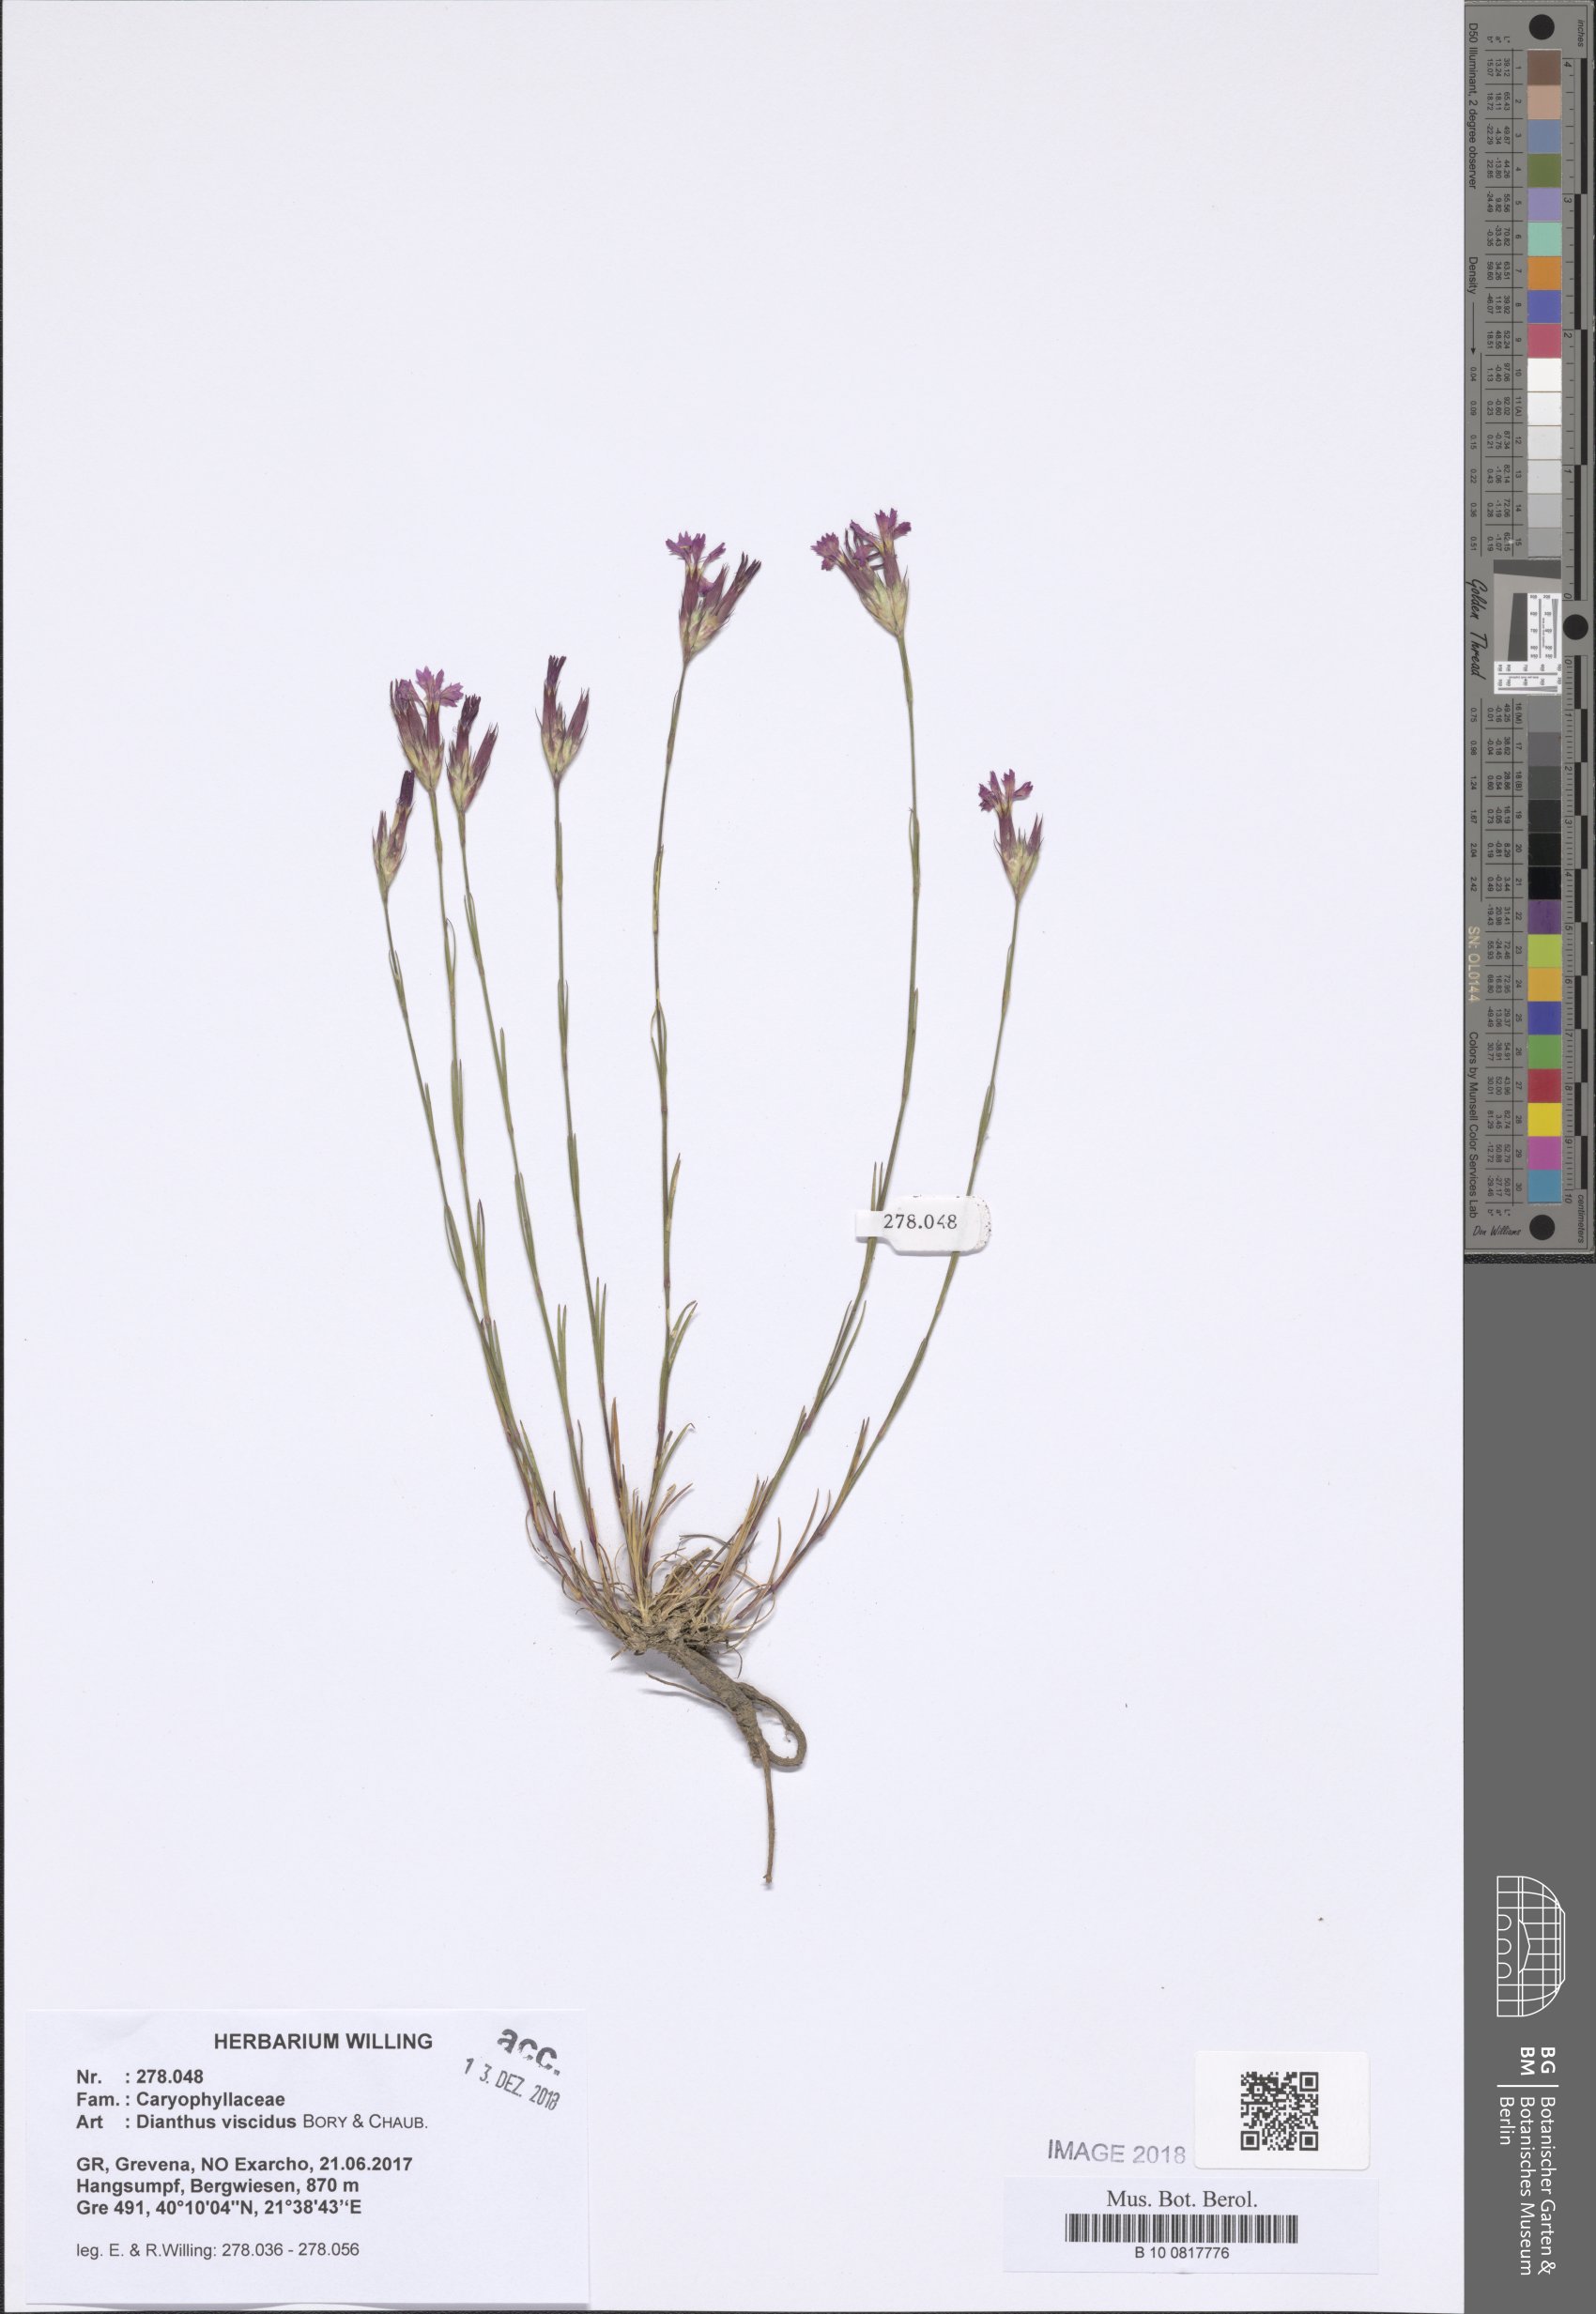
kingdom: Plantae
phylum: Tracheophyta
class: Magnoliopsida
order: Caryophyllales
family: Caryophyllaceae
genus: Dianthus
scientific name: Dianthus viscidus
